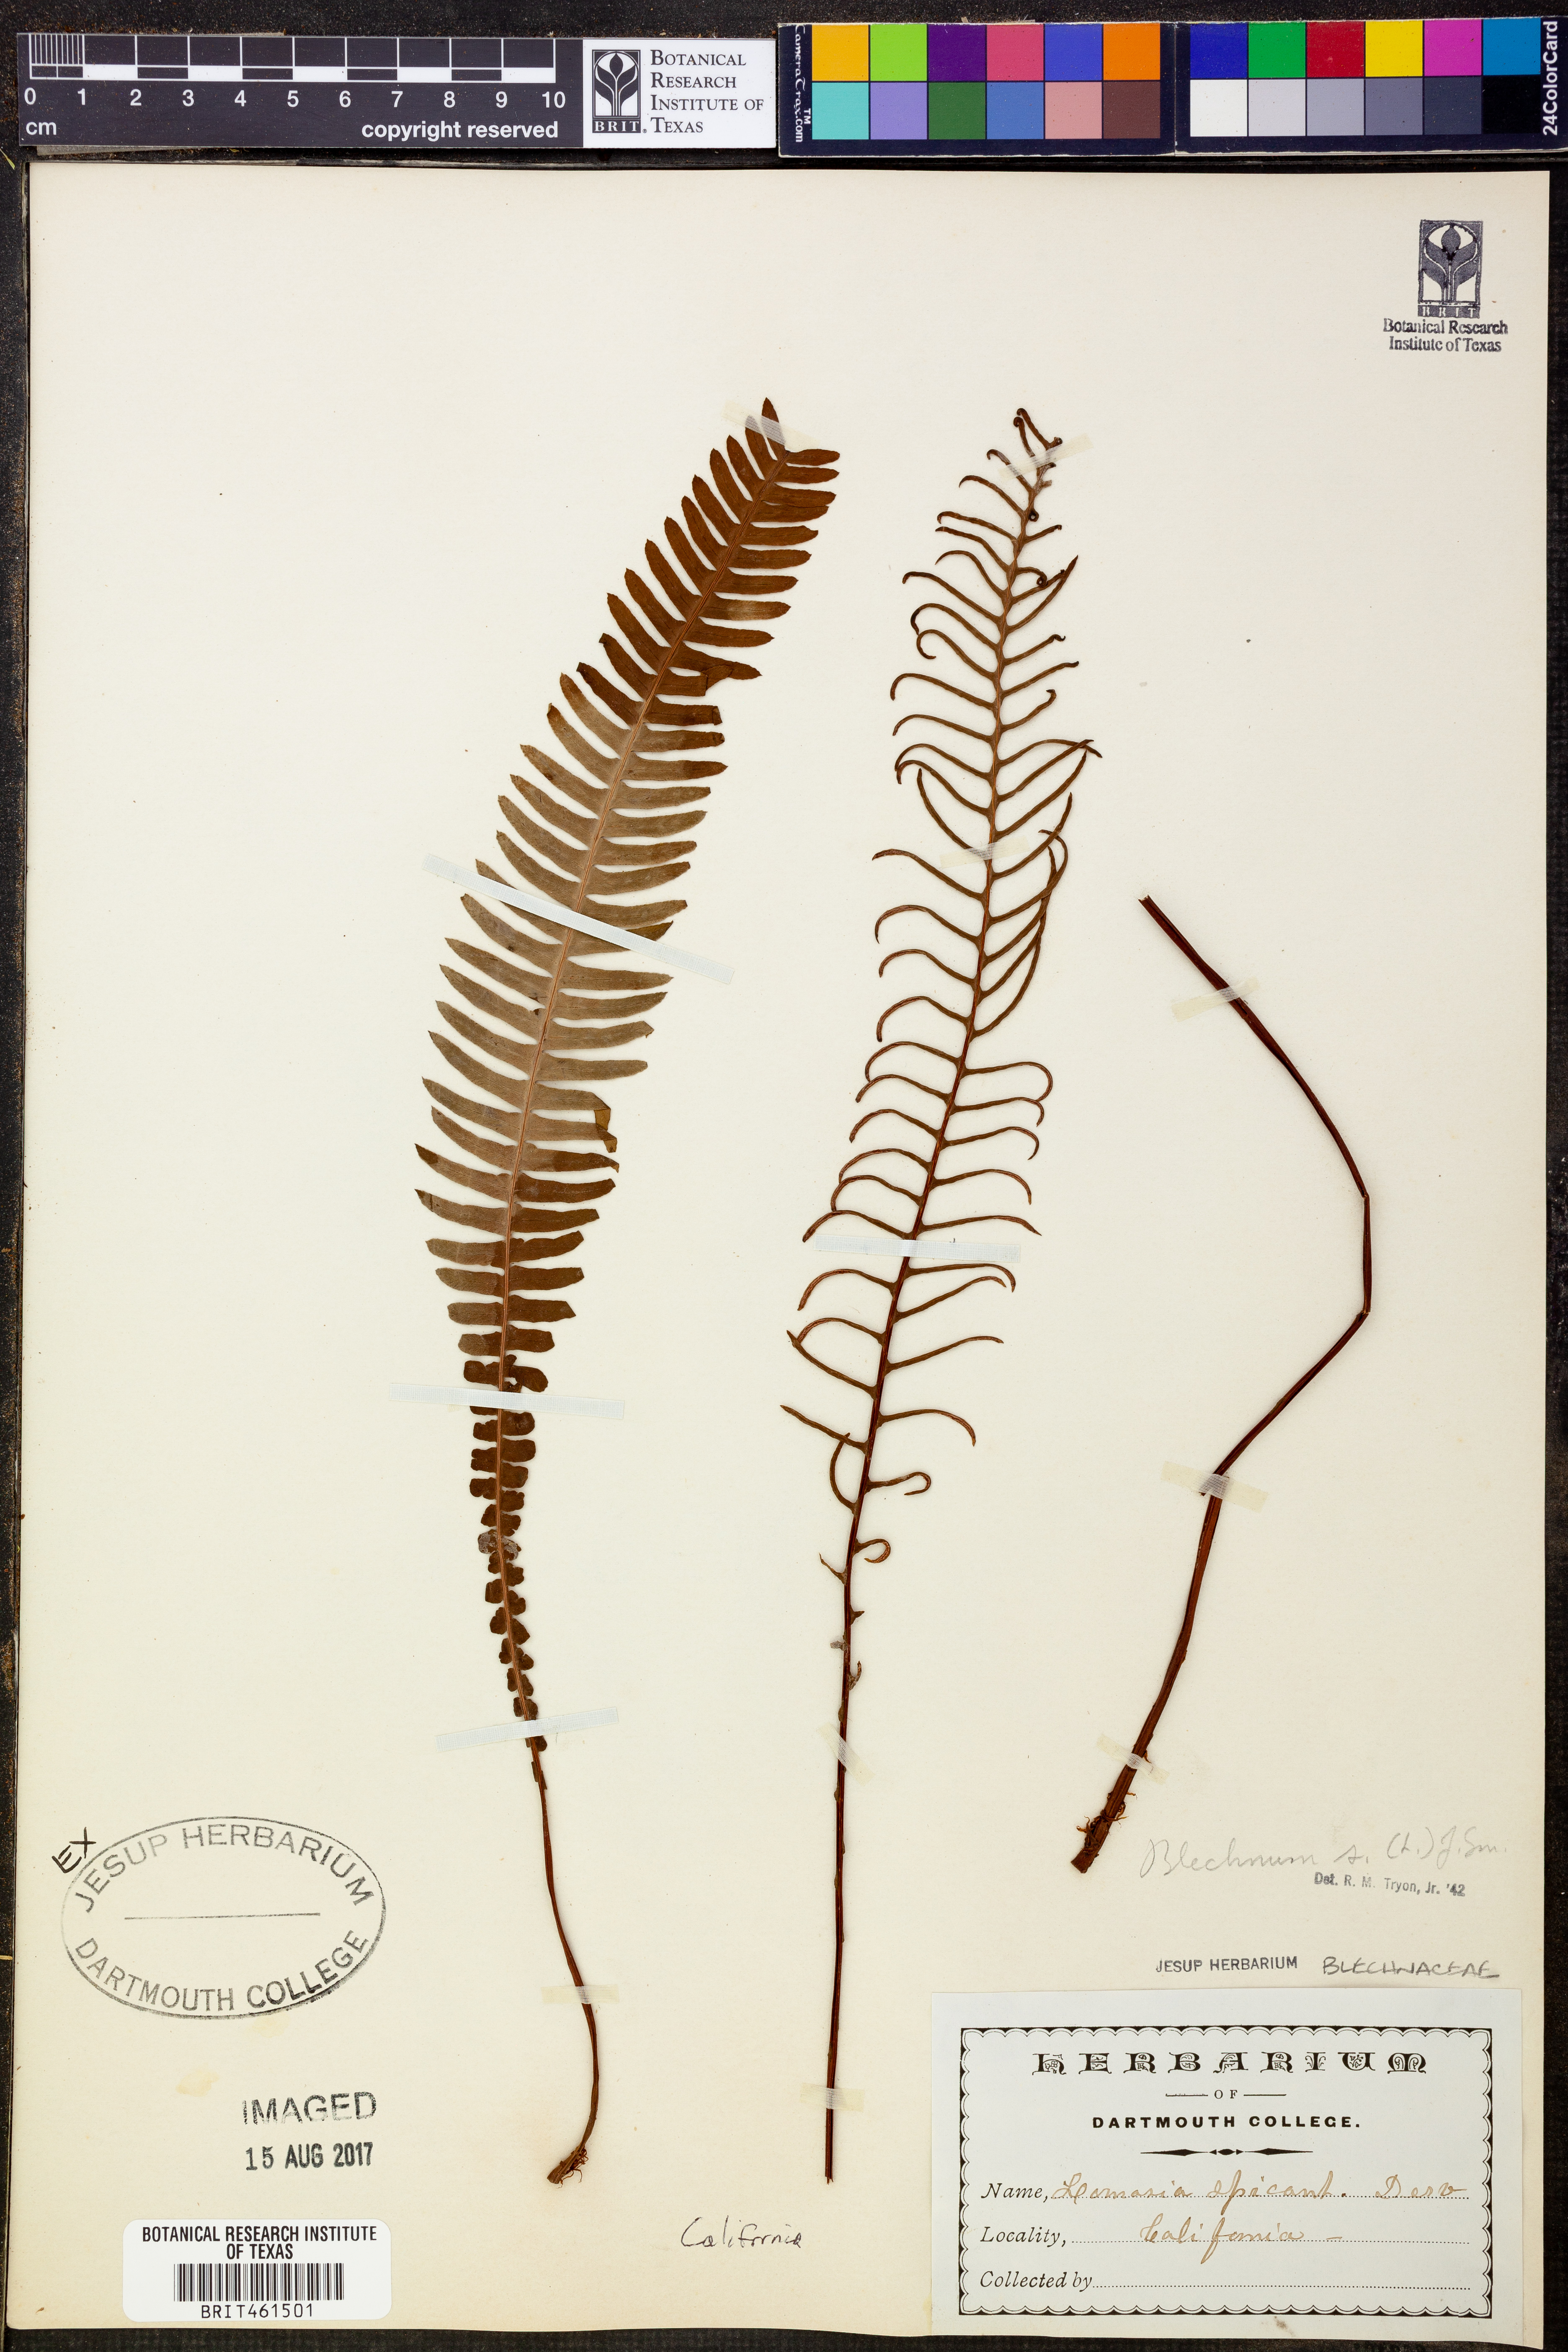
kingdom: Plantae
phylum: Tracheophyta
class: Polypodiopsida
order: Polypodiales
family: Blechnaceae
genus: Struthiopteris
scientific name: Struthiopteris spicant
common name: Deer fern
